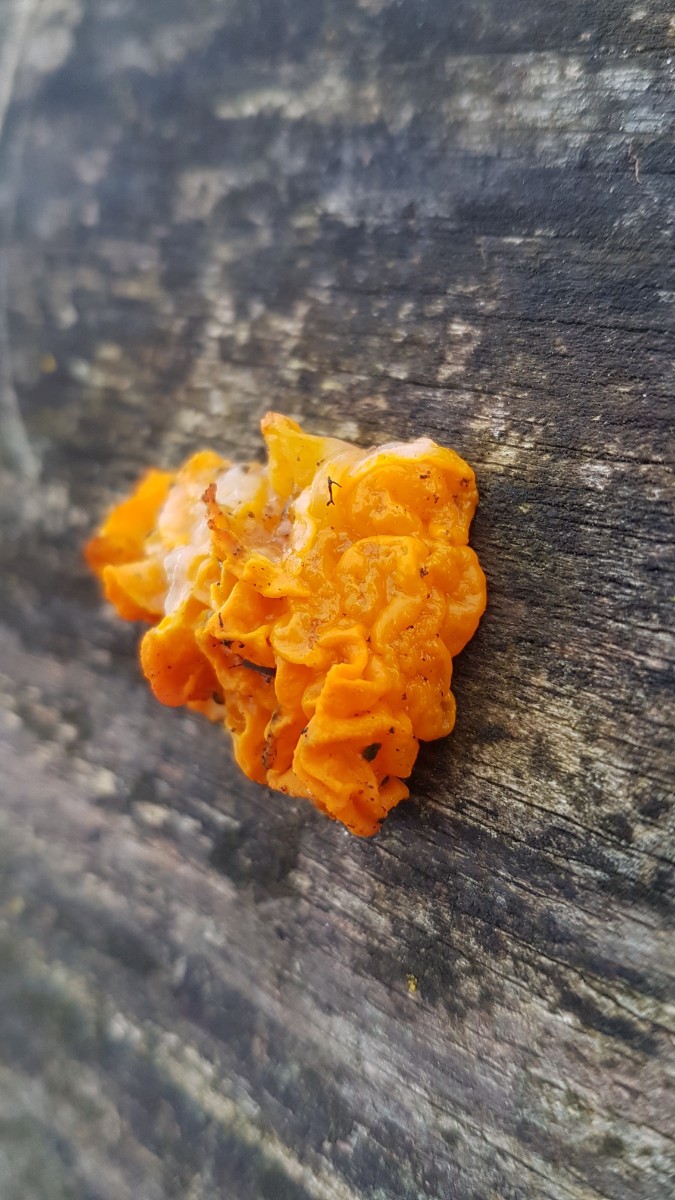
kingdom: Fungi
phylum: Basidiomycota
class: Tremellomycetes
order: Tremellales
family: Tremellaceae
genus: Tremella
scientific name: Tremella mesenterica
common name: gul bævresvamp
